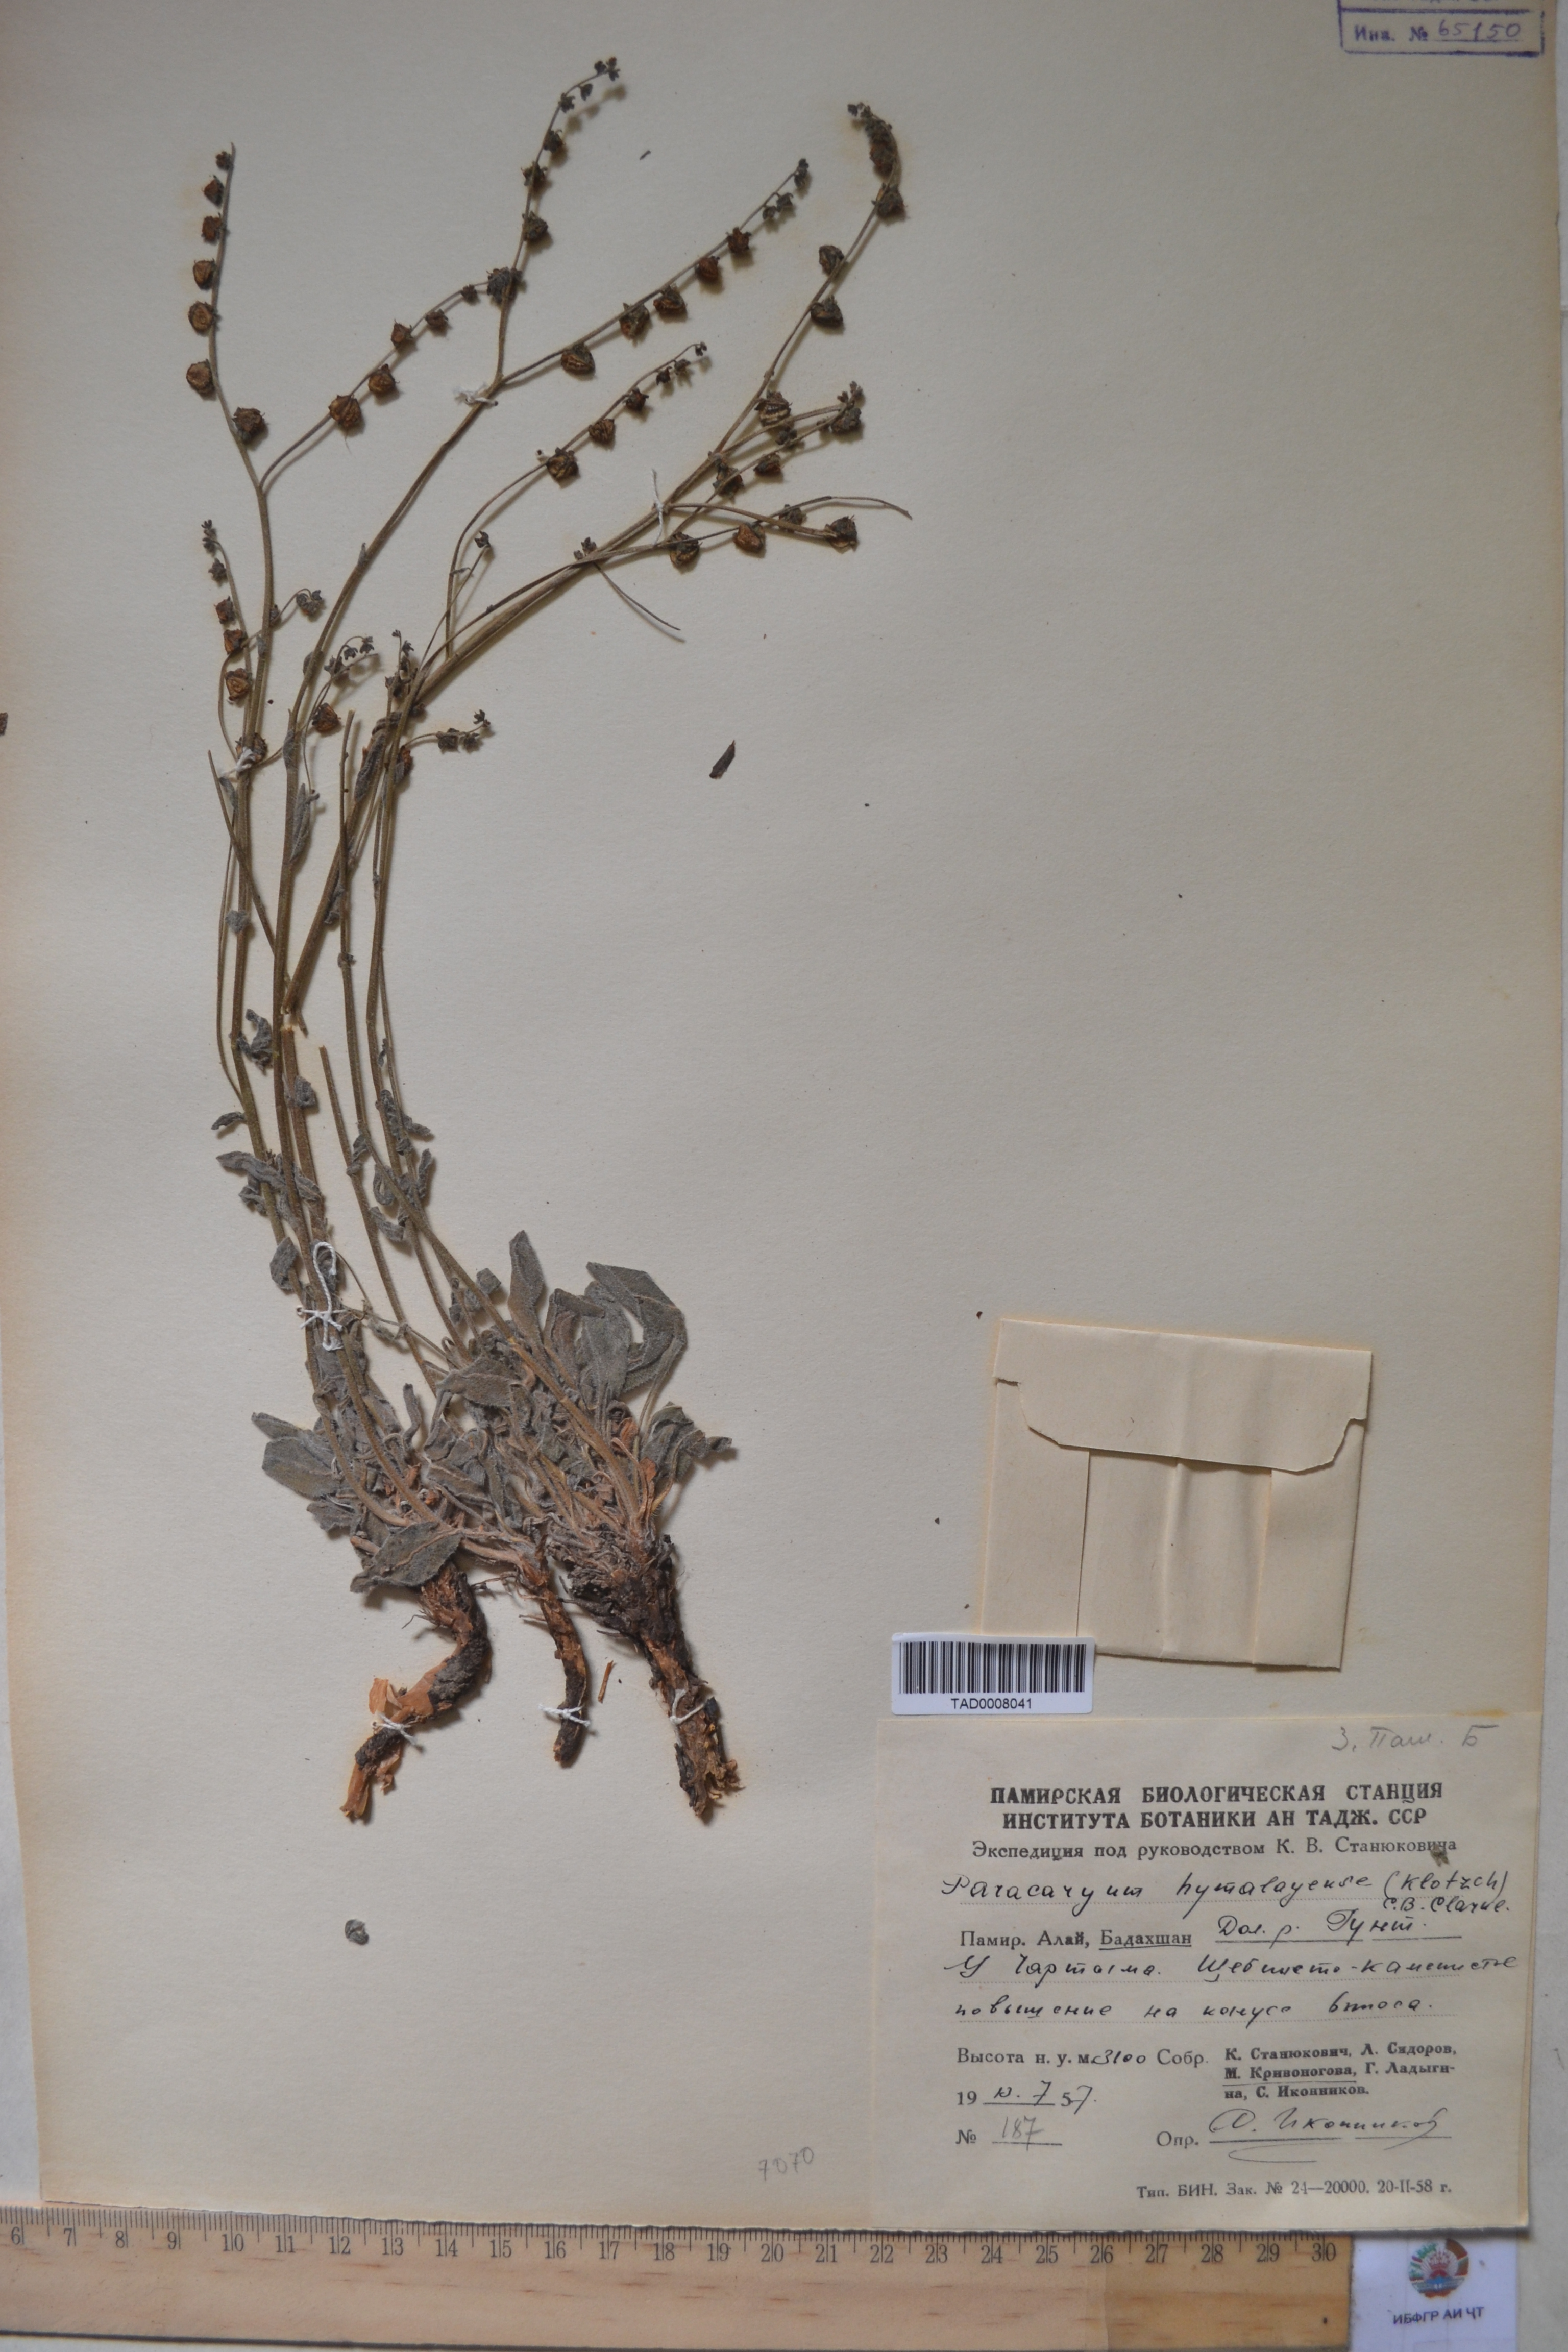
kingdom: Plantae
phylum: Tracheophyta
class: Magnoliopsida
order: Boraginales
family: Boraginaceae
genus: Paracaryum
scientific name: Paracaryum himalayense
